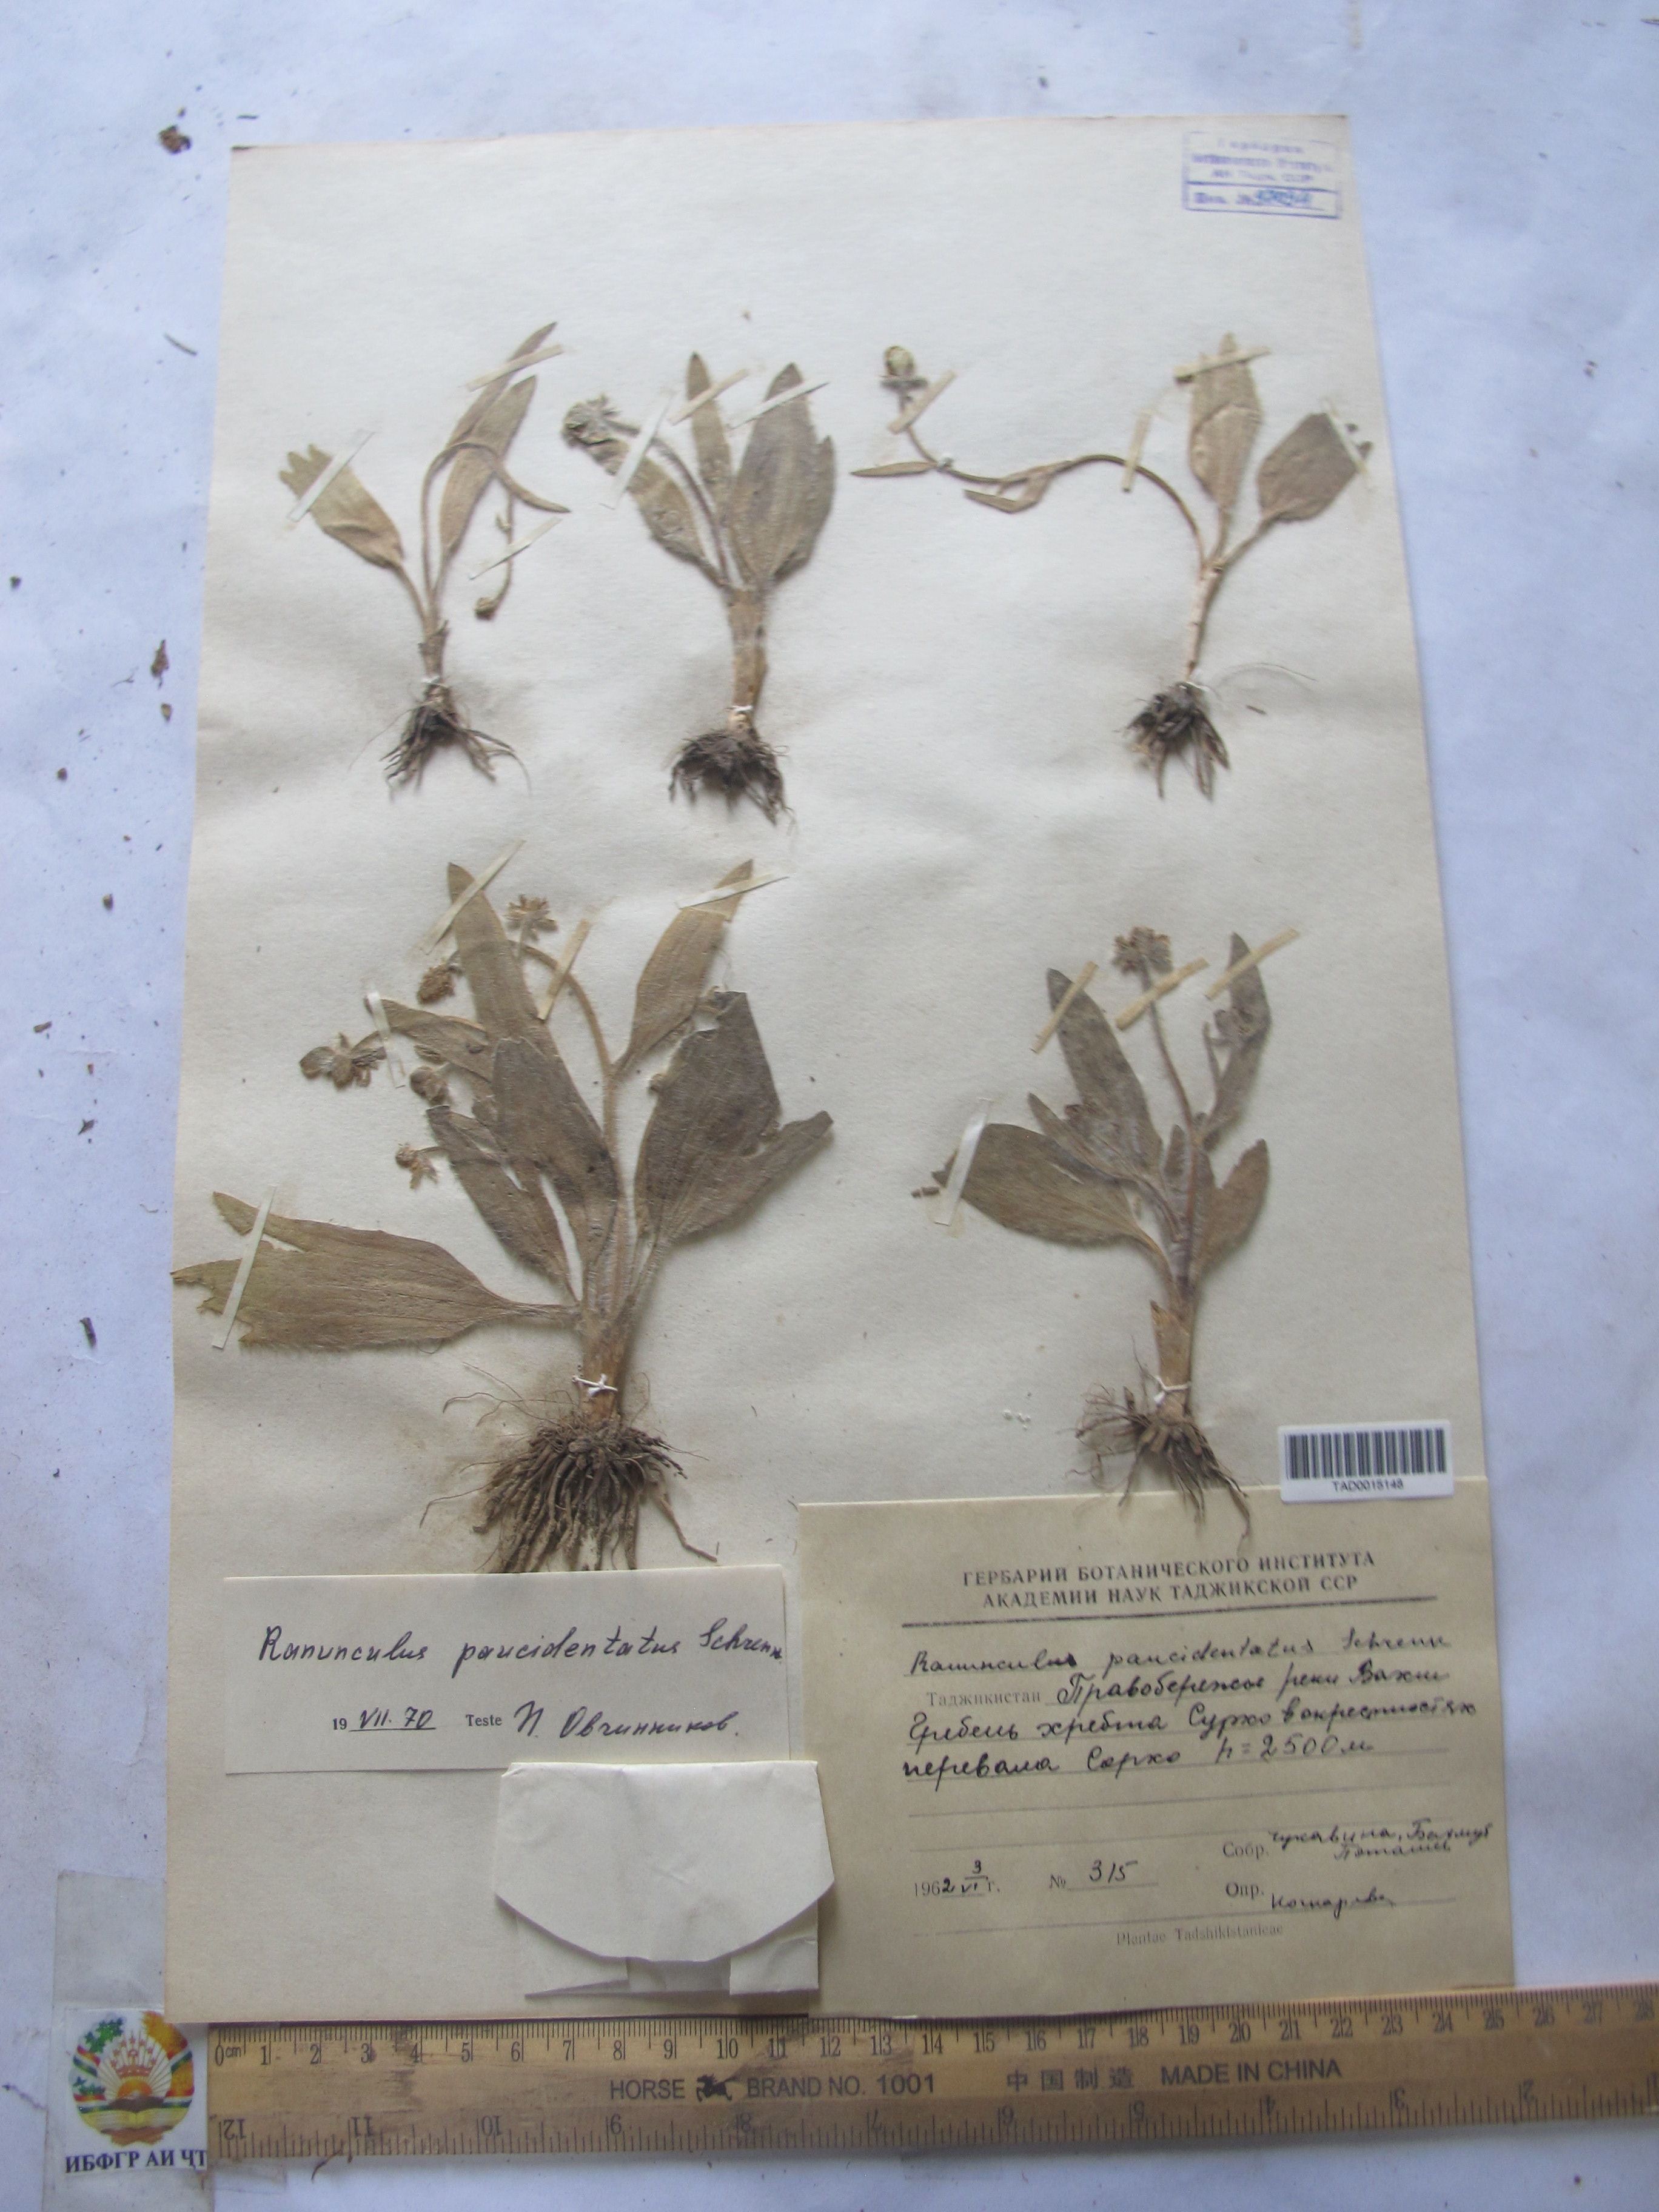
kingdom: Plantae
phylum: Tracheophyta
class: Magnoliopsida
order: Ranunculales
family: Ranunculaceae
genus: Ranunculus
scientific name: Ranunculus paucidentatus
